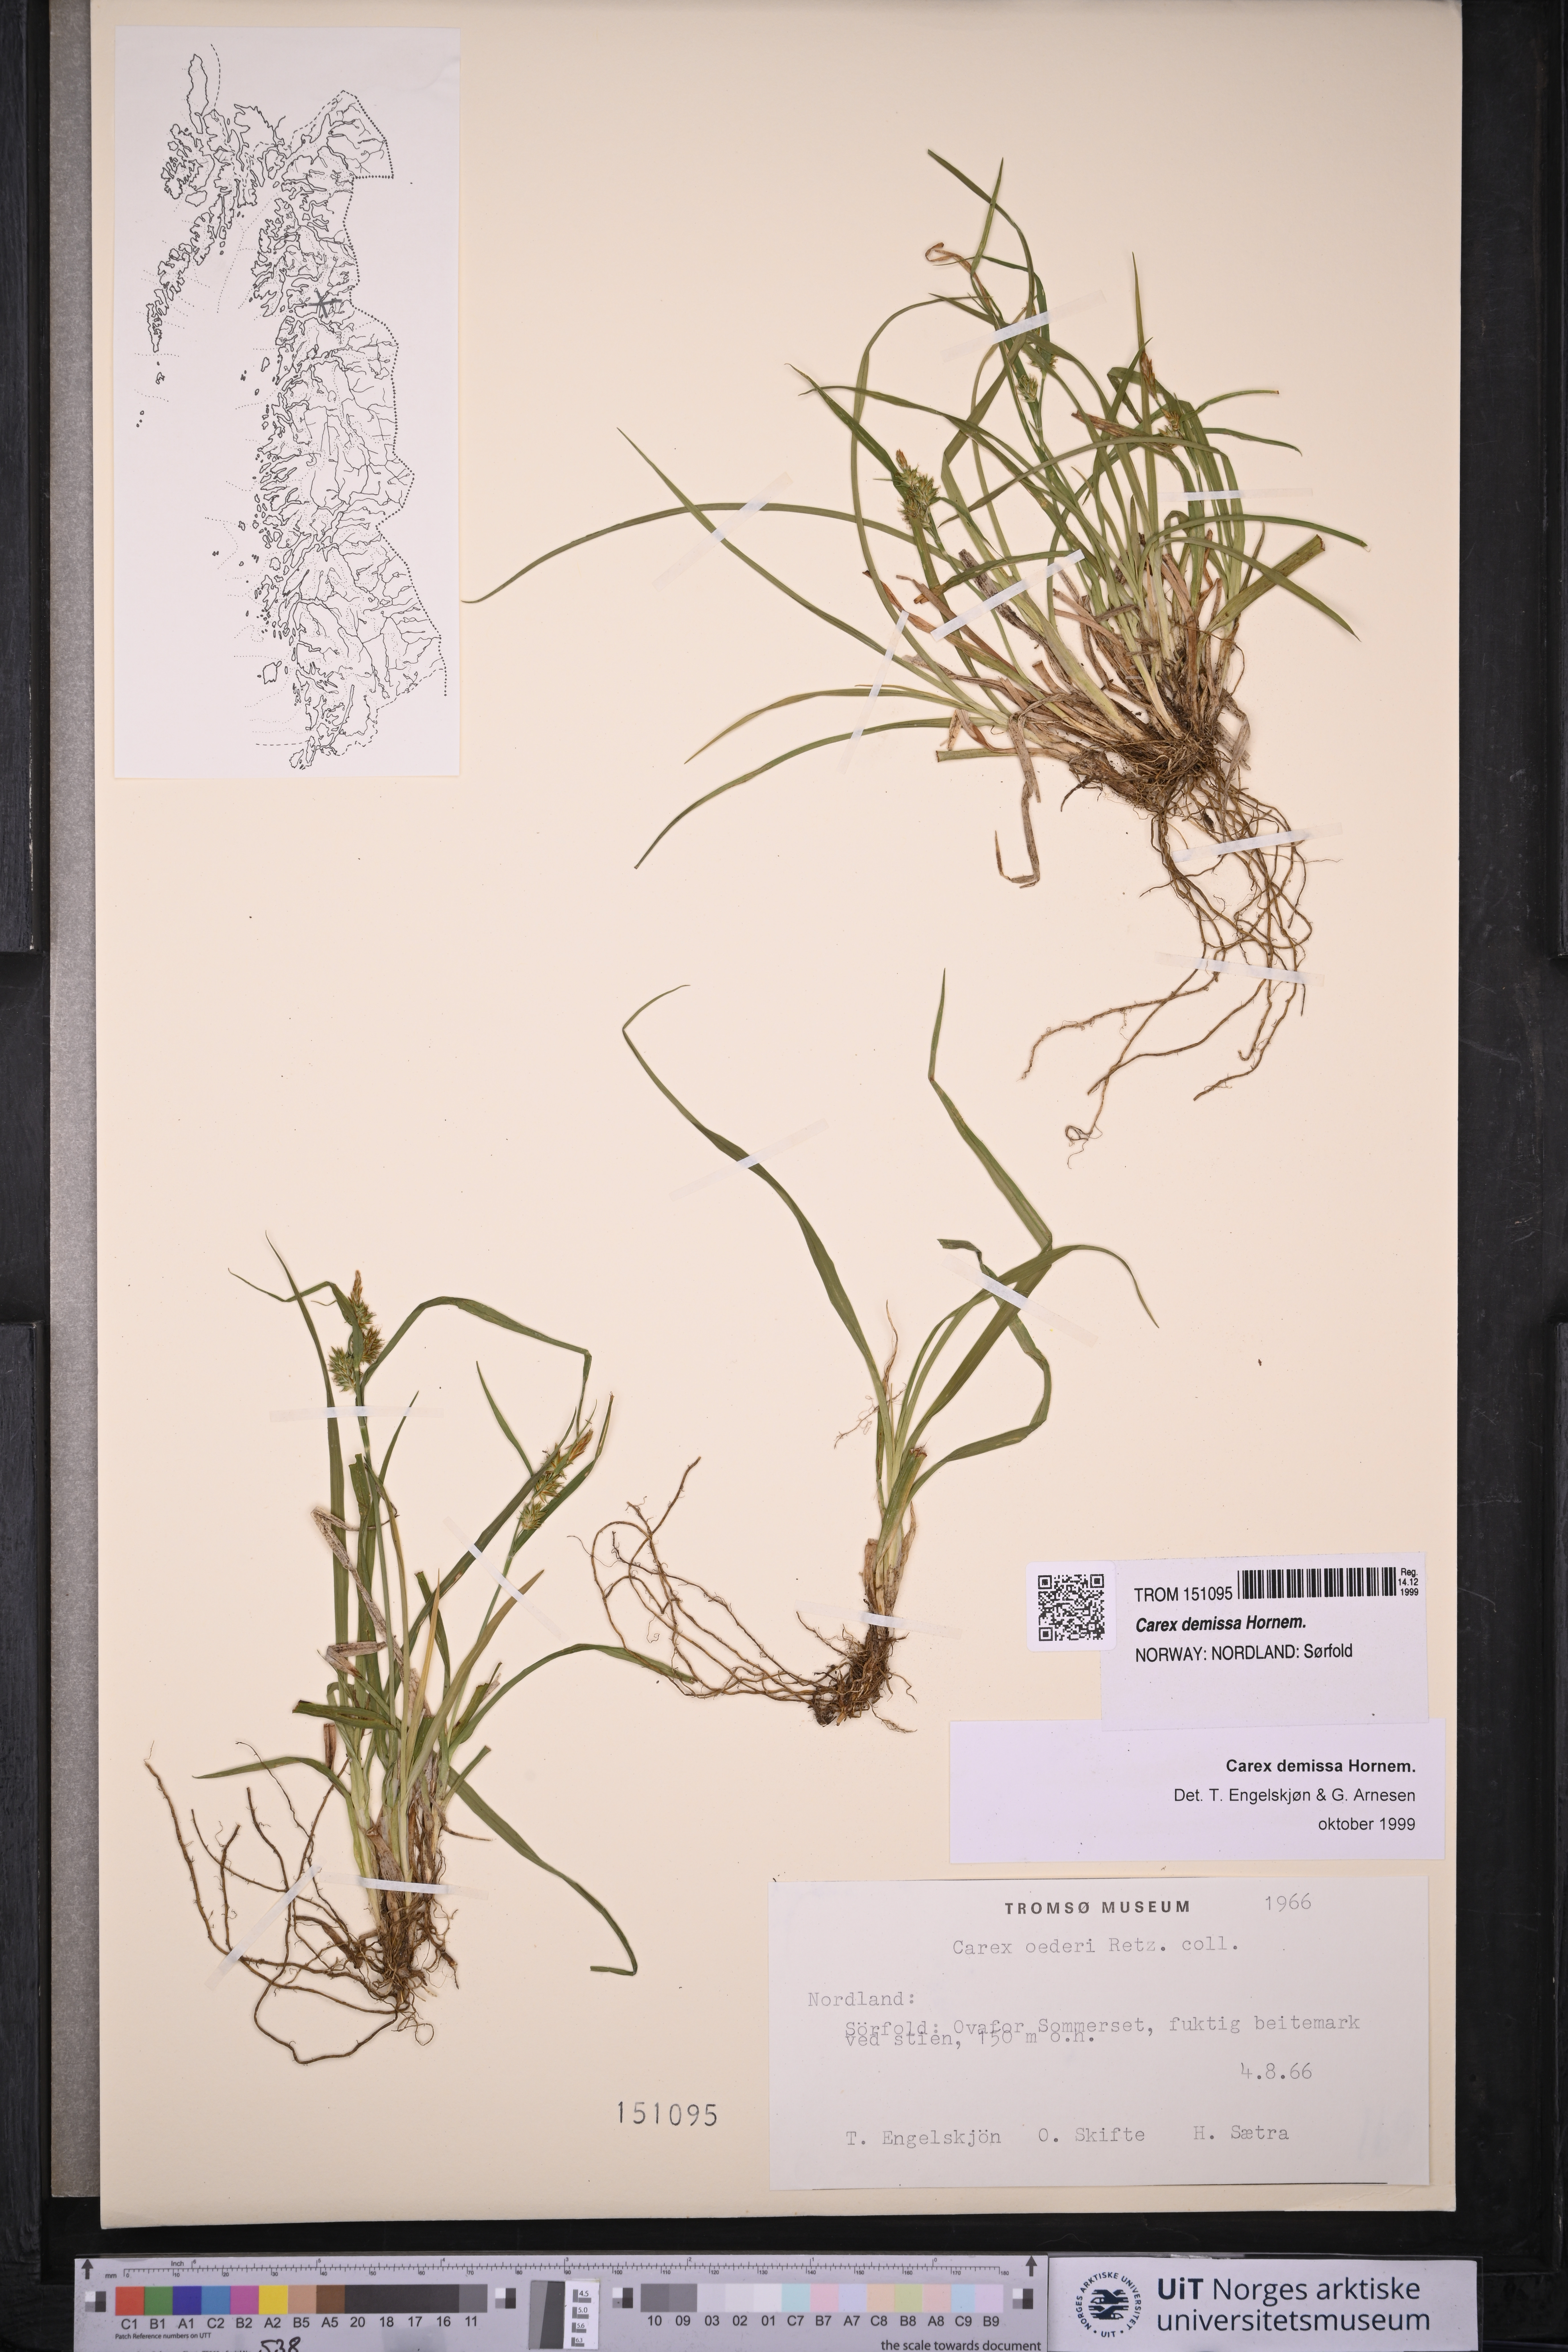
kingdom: Plantae
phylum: Tracheophyta
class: Liliopsida
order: Poales
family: Cyperaceae
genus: Carex
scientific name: Carex demissa
